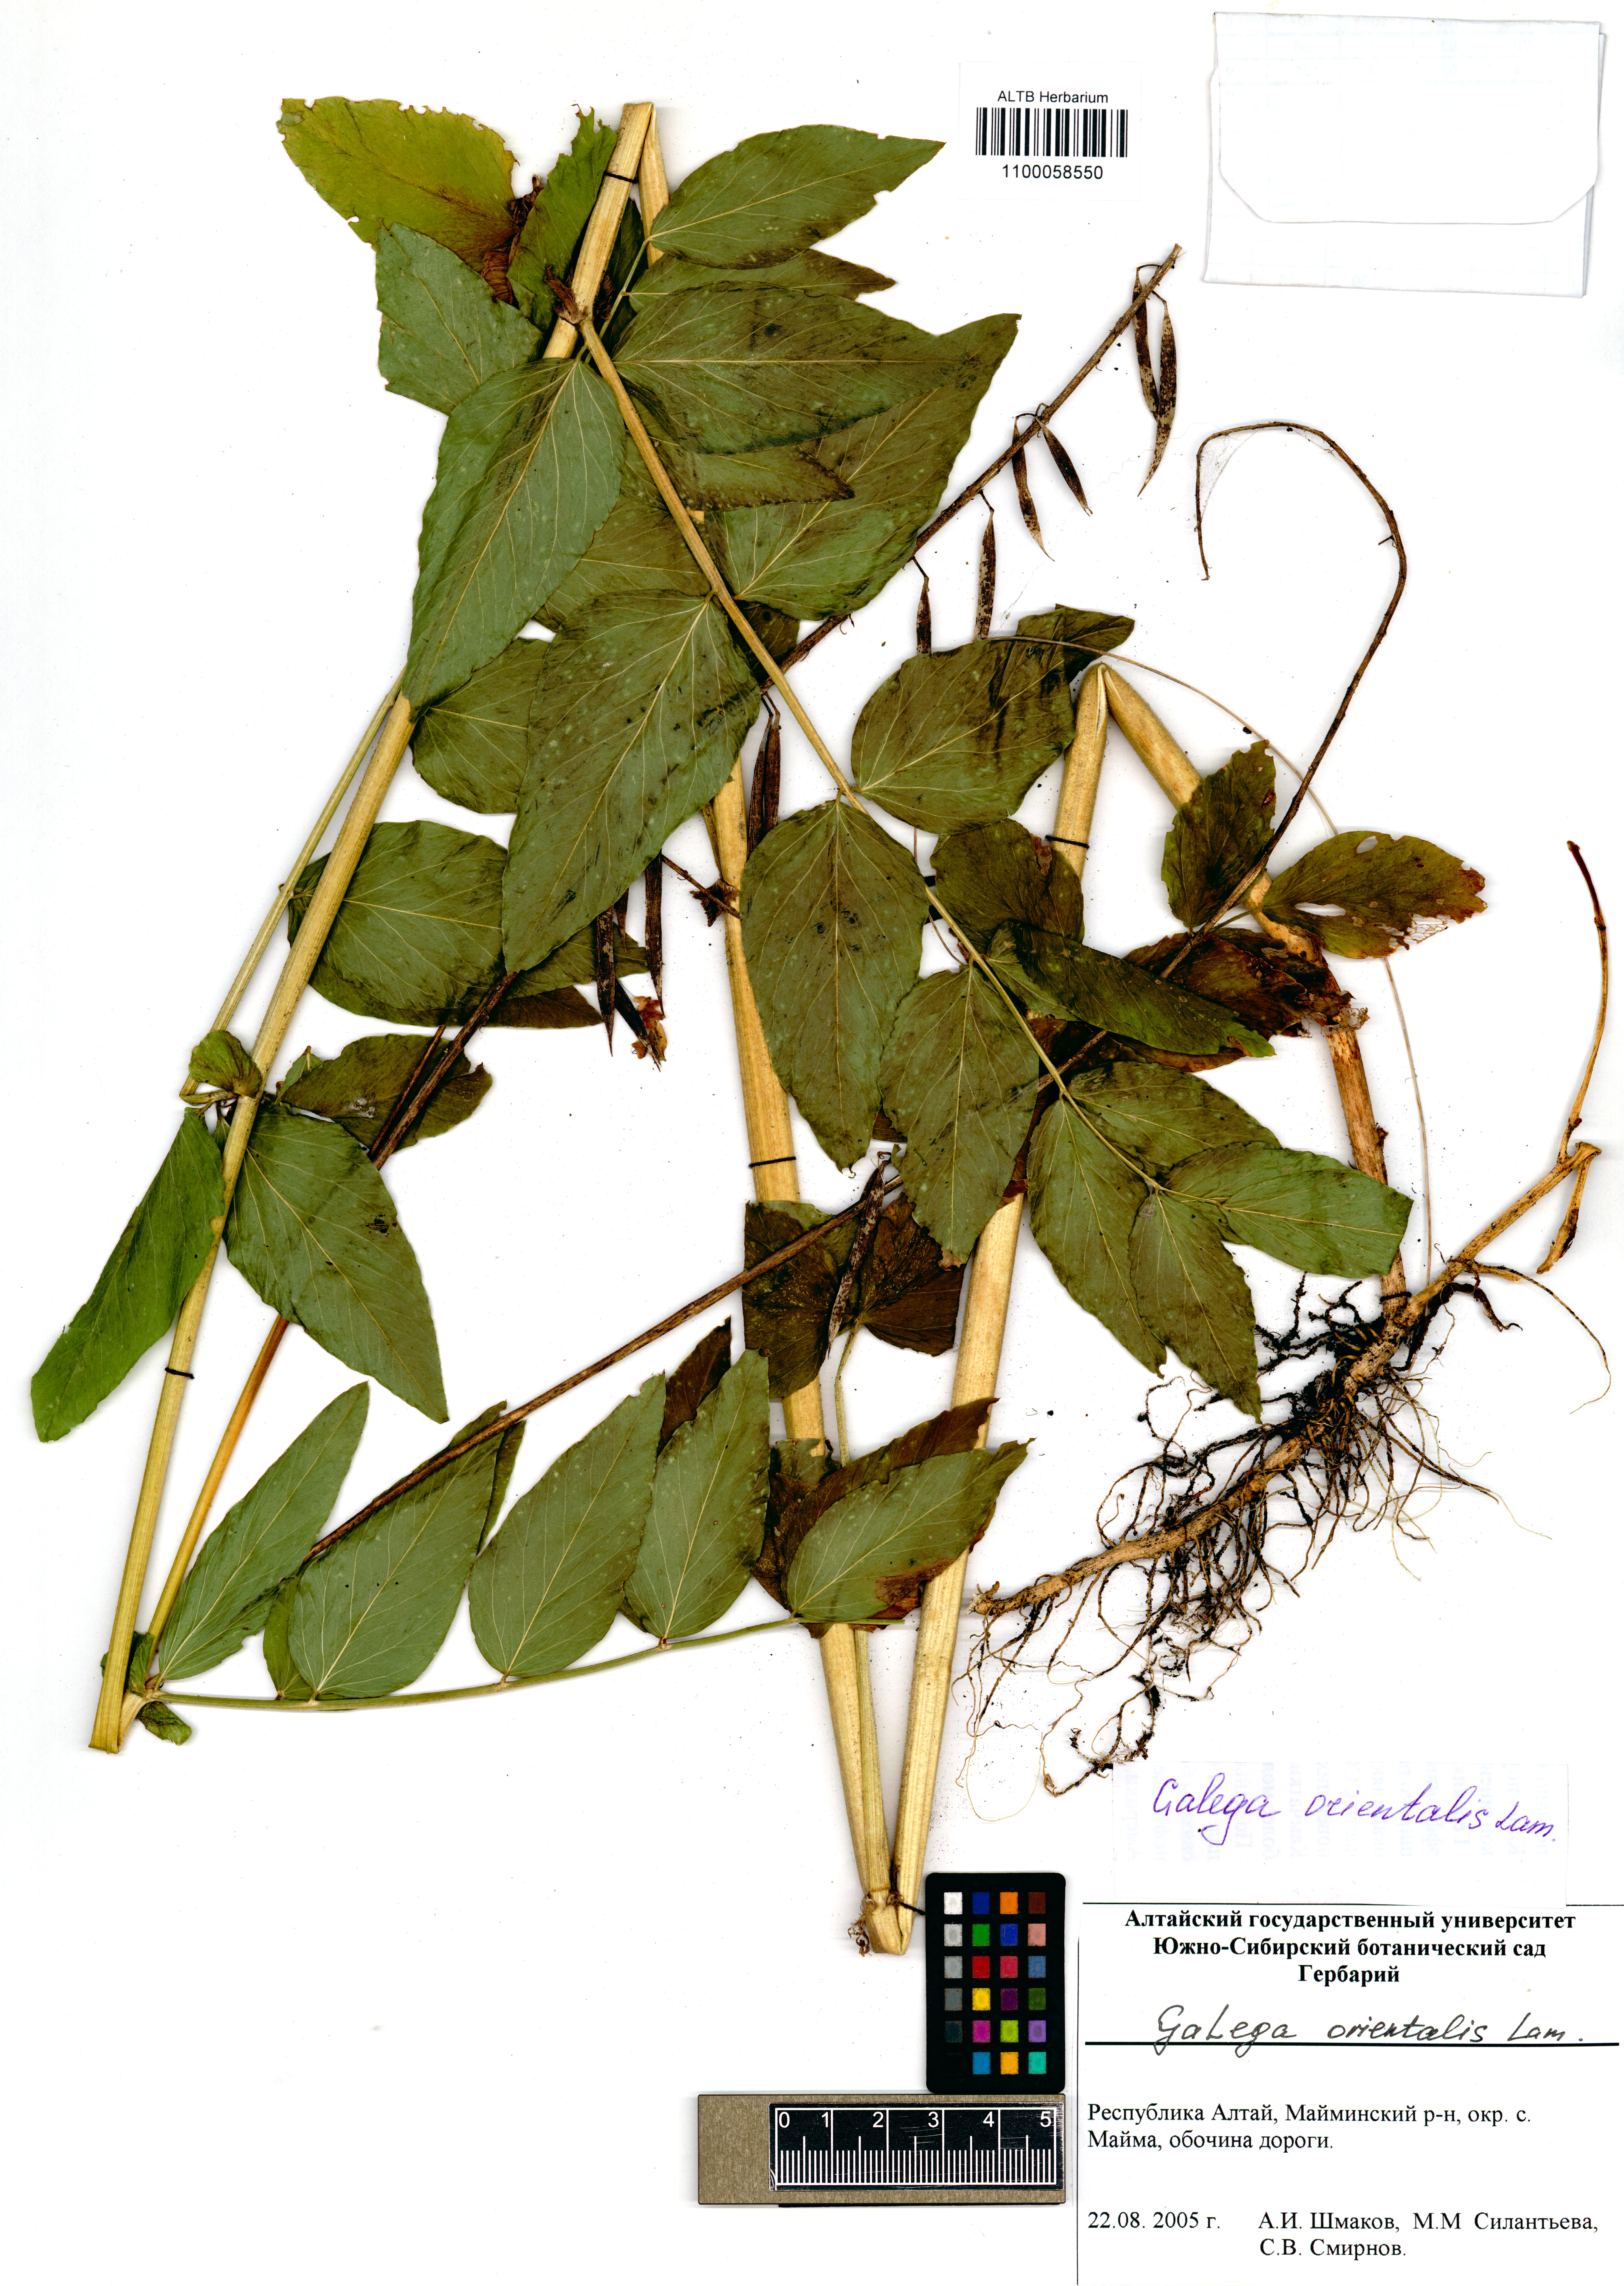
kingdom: Plantae
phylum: Tracheophyta
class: Magnoliopsida
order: Fabales
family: Fabaceae
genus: Galega
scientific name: Galega orientalis
